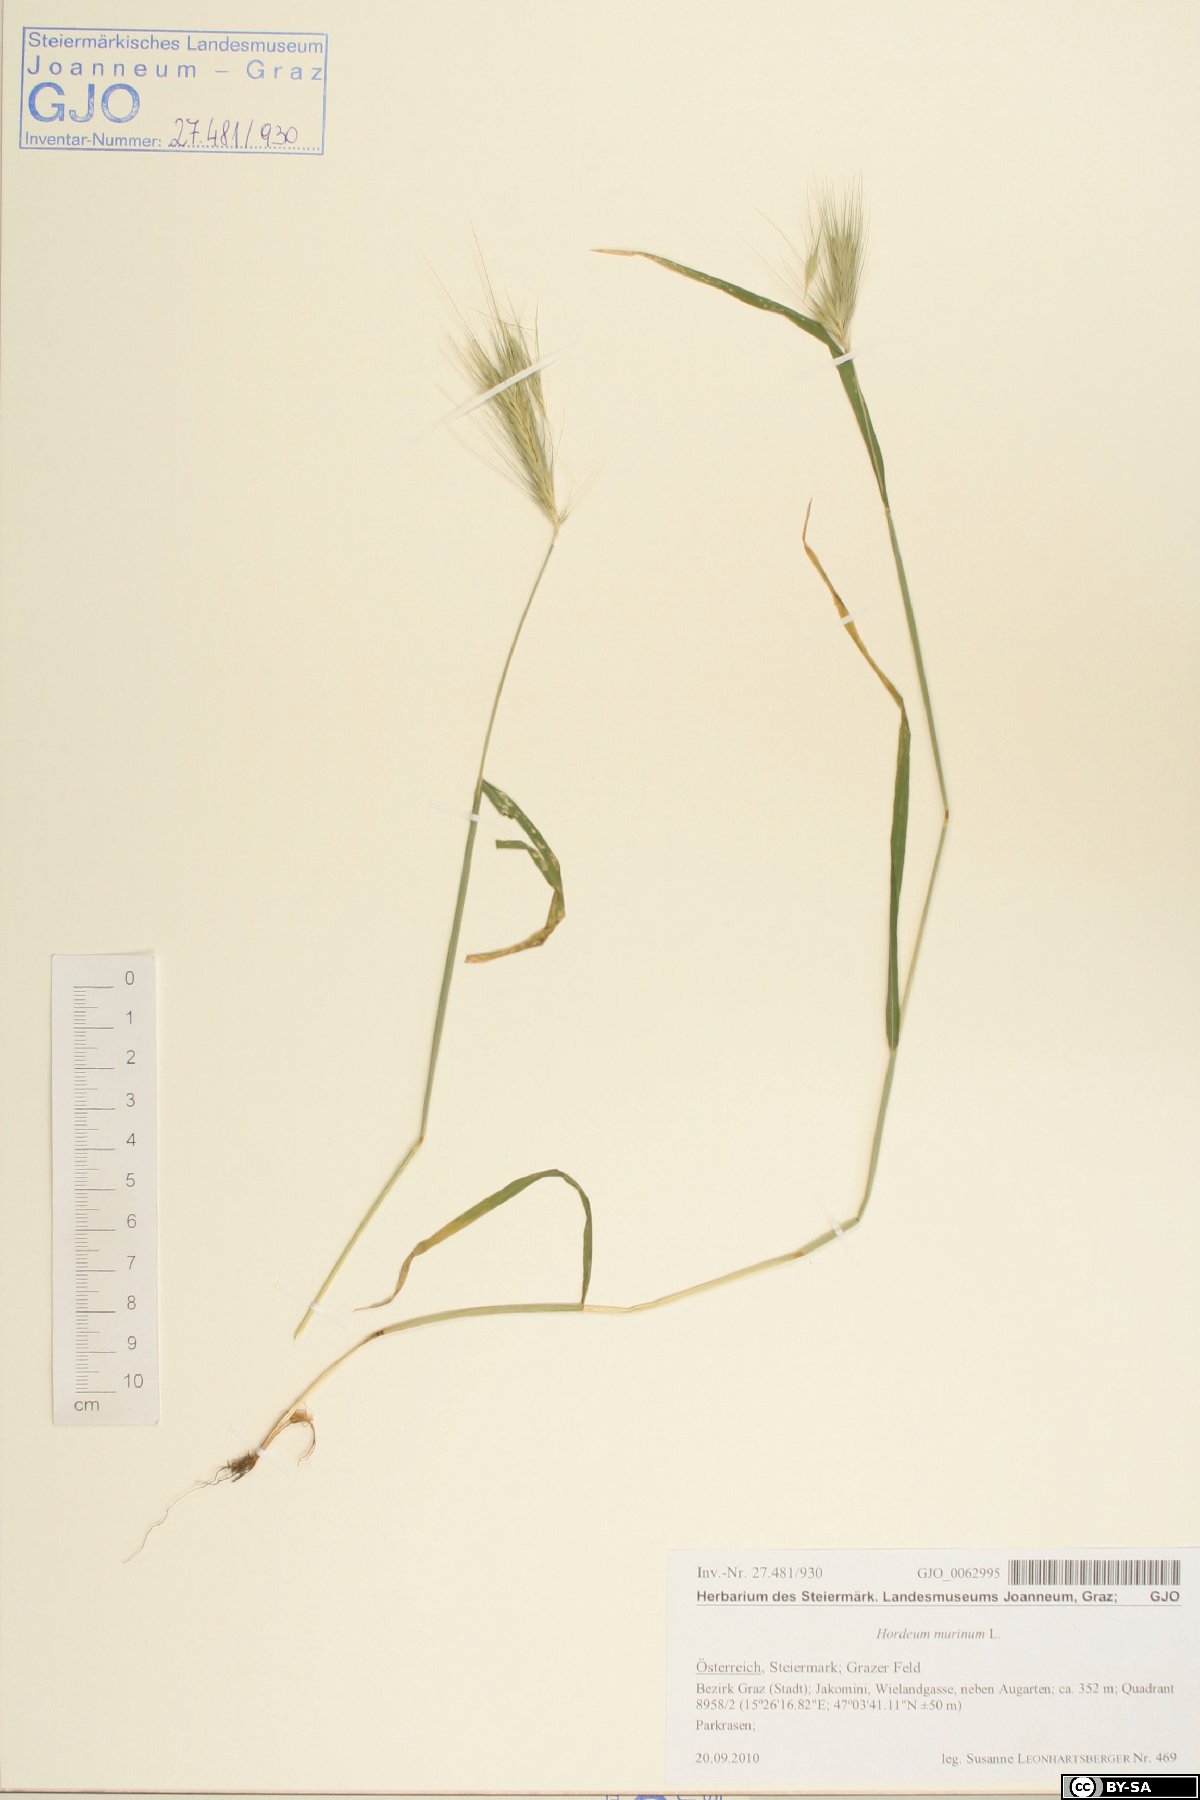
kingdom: Plantae
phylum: Tracheophyta
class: Liliopsida
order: Poales
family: Poaceae
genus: Hordeum
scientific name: Hordeum murinum
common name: Wall barley
